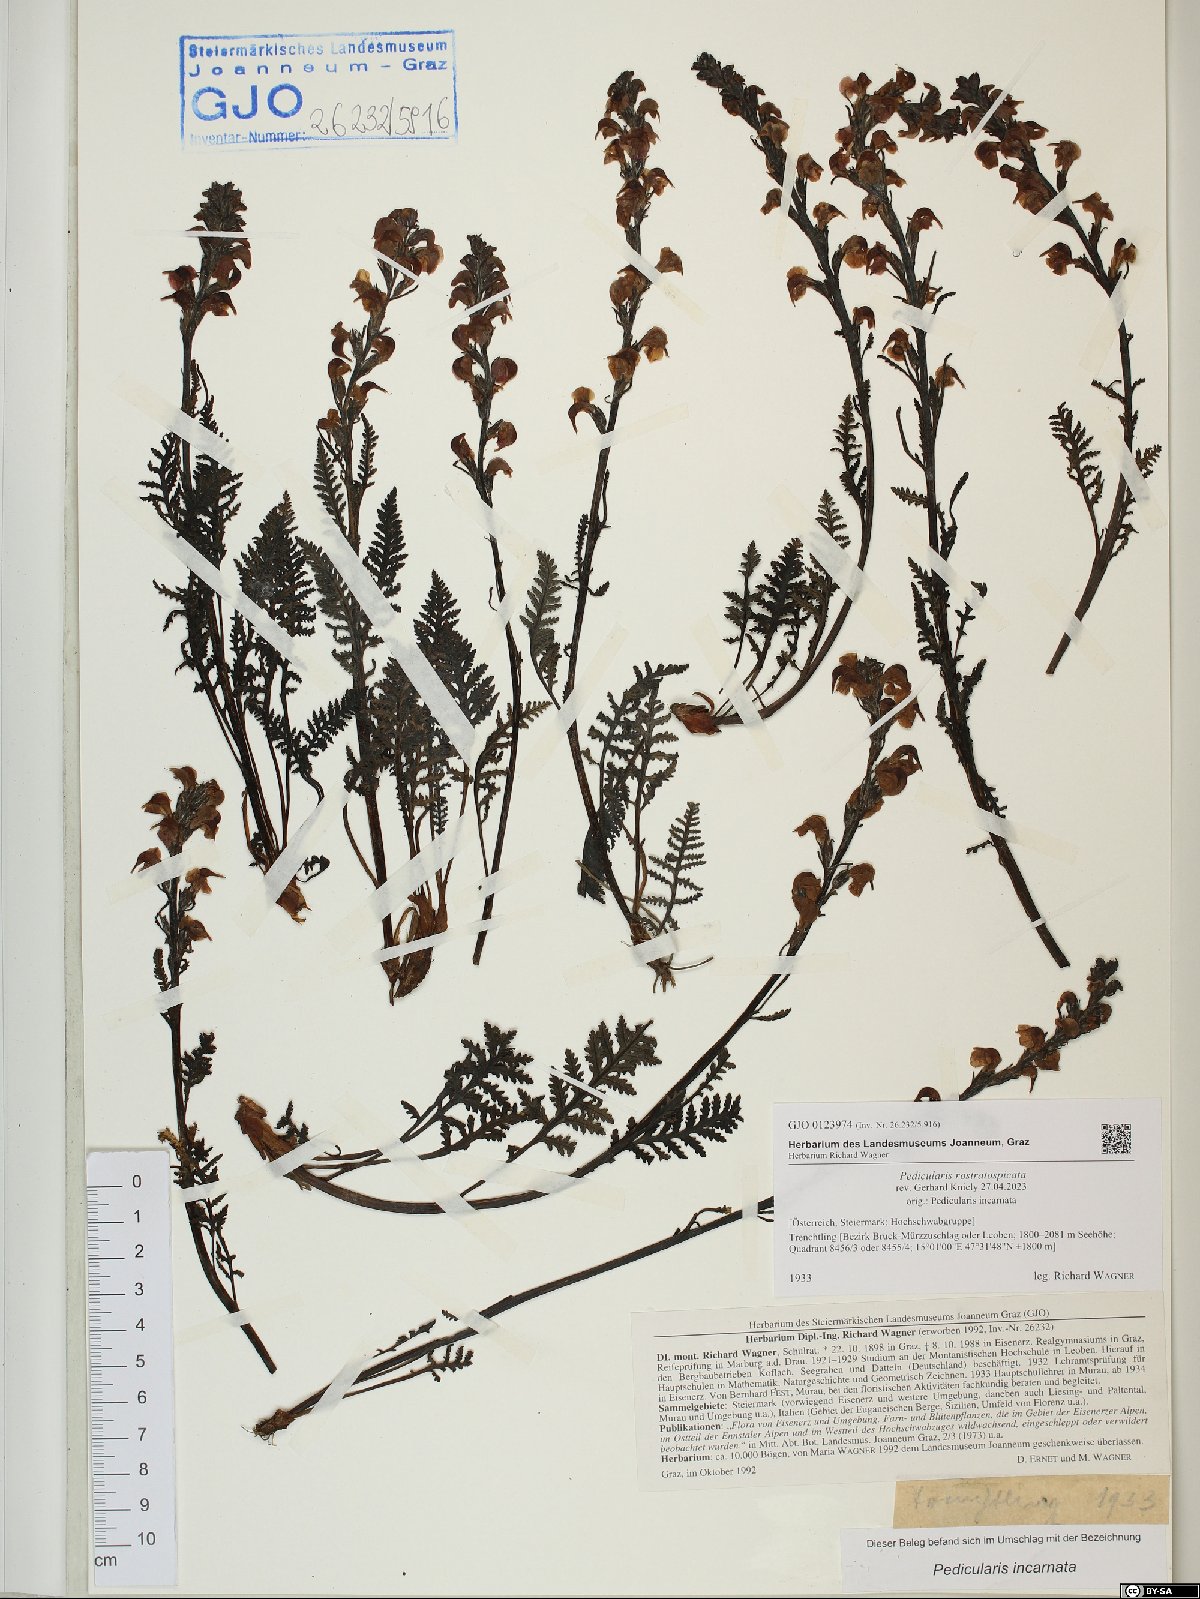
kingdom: Plantae
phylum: Tracheophyta
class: Magnoliopsida
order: Lamiales
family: Orobanchaceae
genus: Pedicularis
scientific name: Pedicularis rostratospicata
